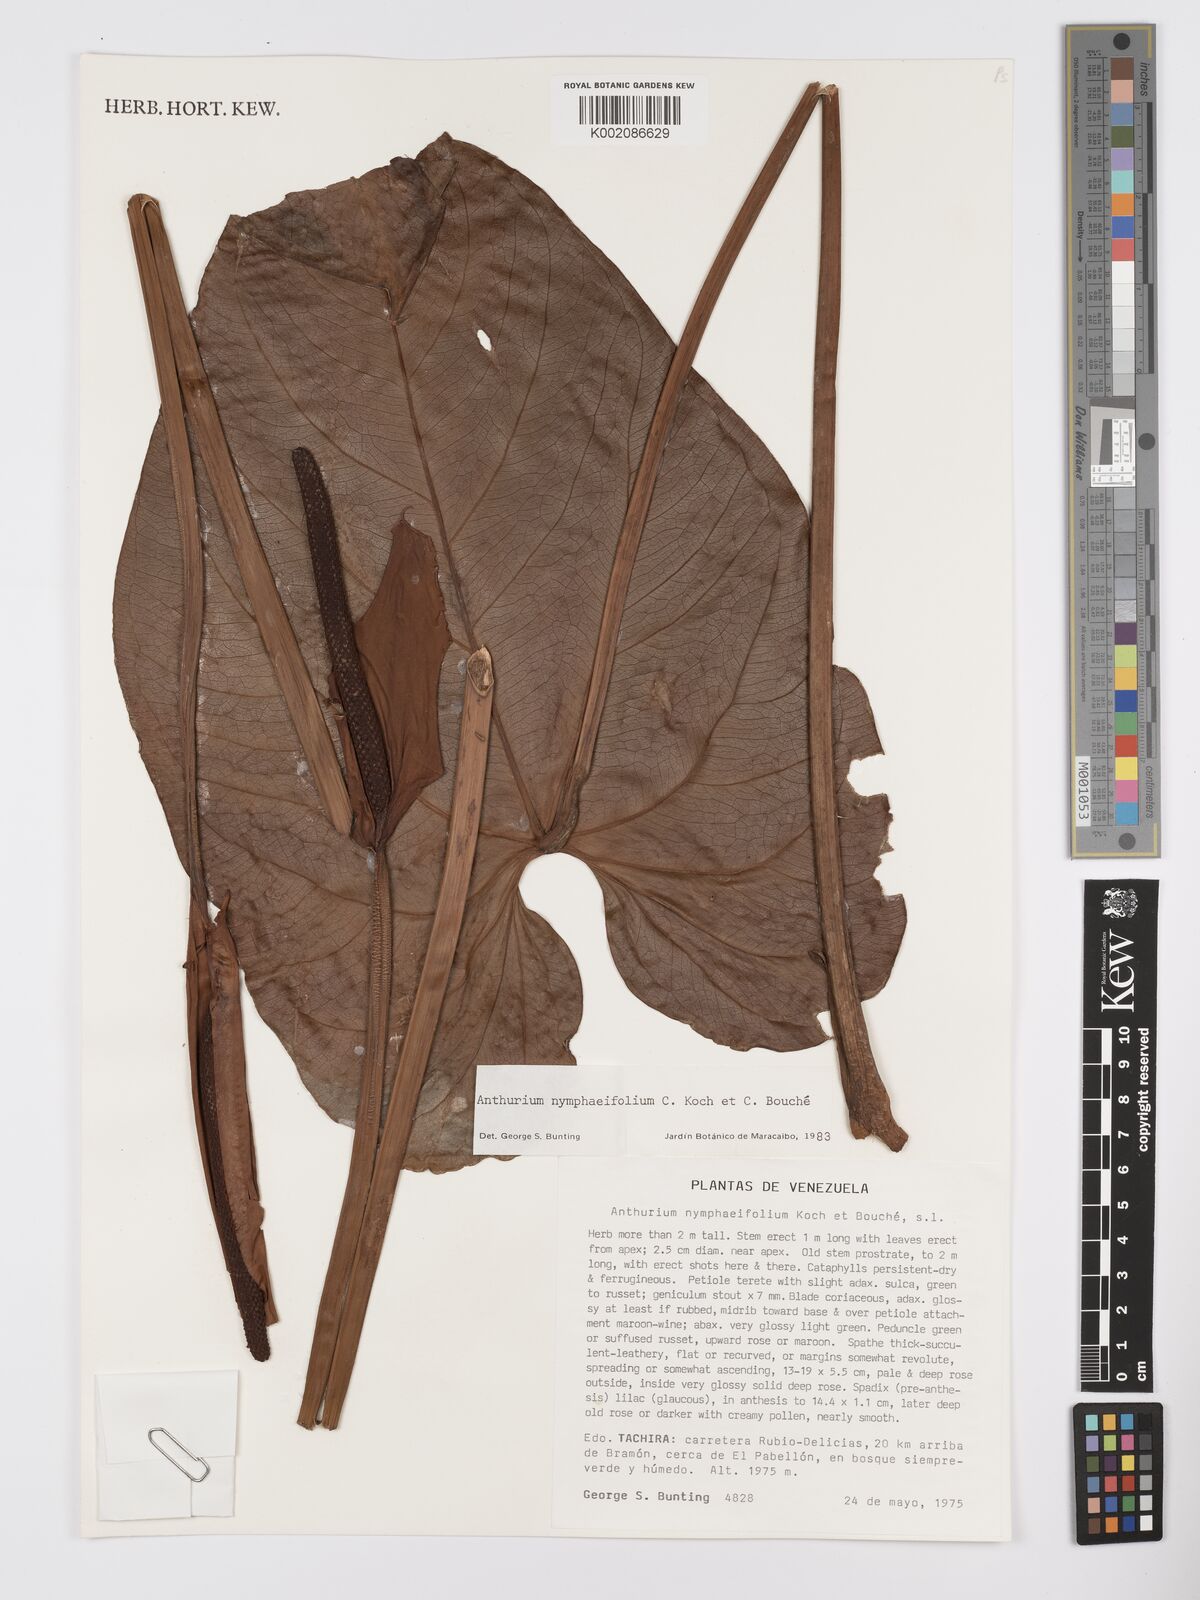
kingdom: Plantae
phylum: Tracheophyta
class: Liliopsida
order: Alismatales
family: Araceae
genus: Anthurium
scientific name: Anthurium nymphaeifolium
